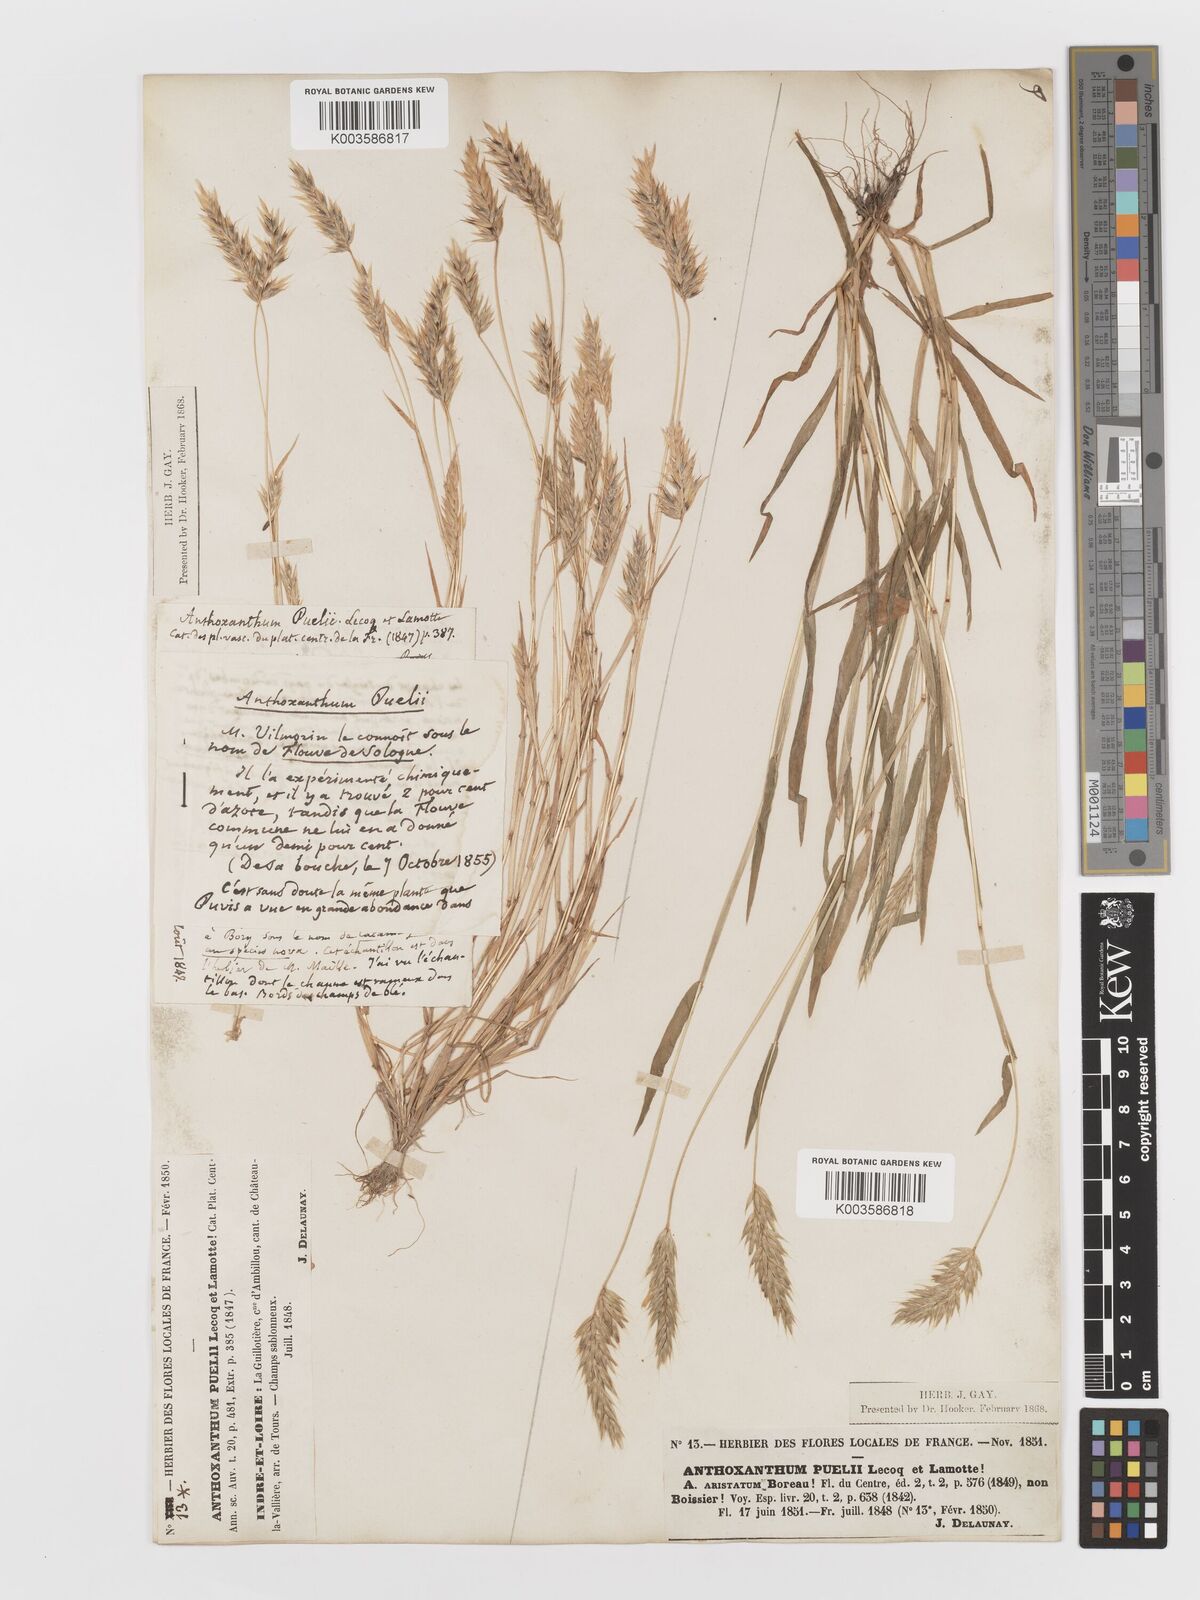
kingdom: Plantae
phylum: Tracheophyta
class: Liliopsida
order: Poales
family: Poaceae
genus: Anthoxanthum
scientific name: Anthoxanthum
